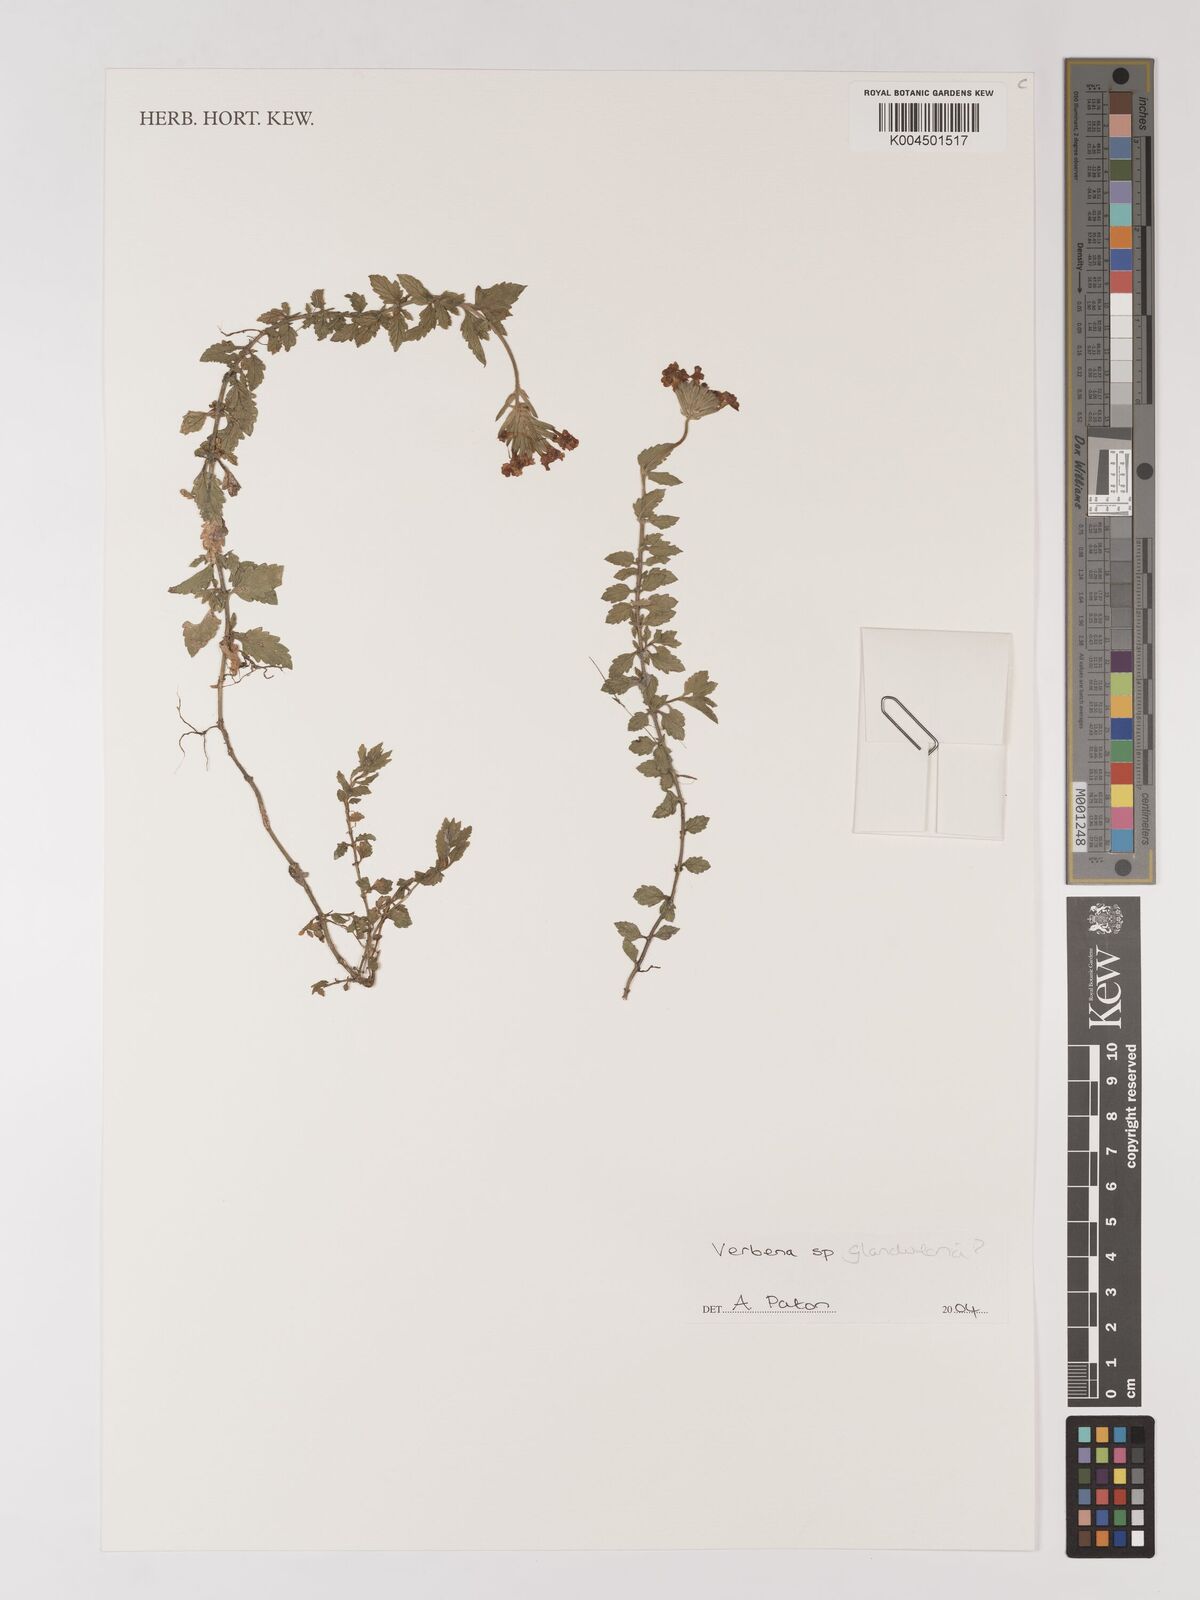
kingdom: Plantae
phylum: Tracheophyta
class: Magnoliopsida
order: Lamiales
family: Verbenaceae
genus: Verbena
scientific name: Verbena
